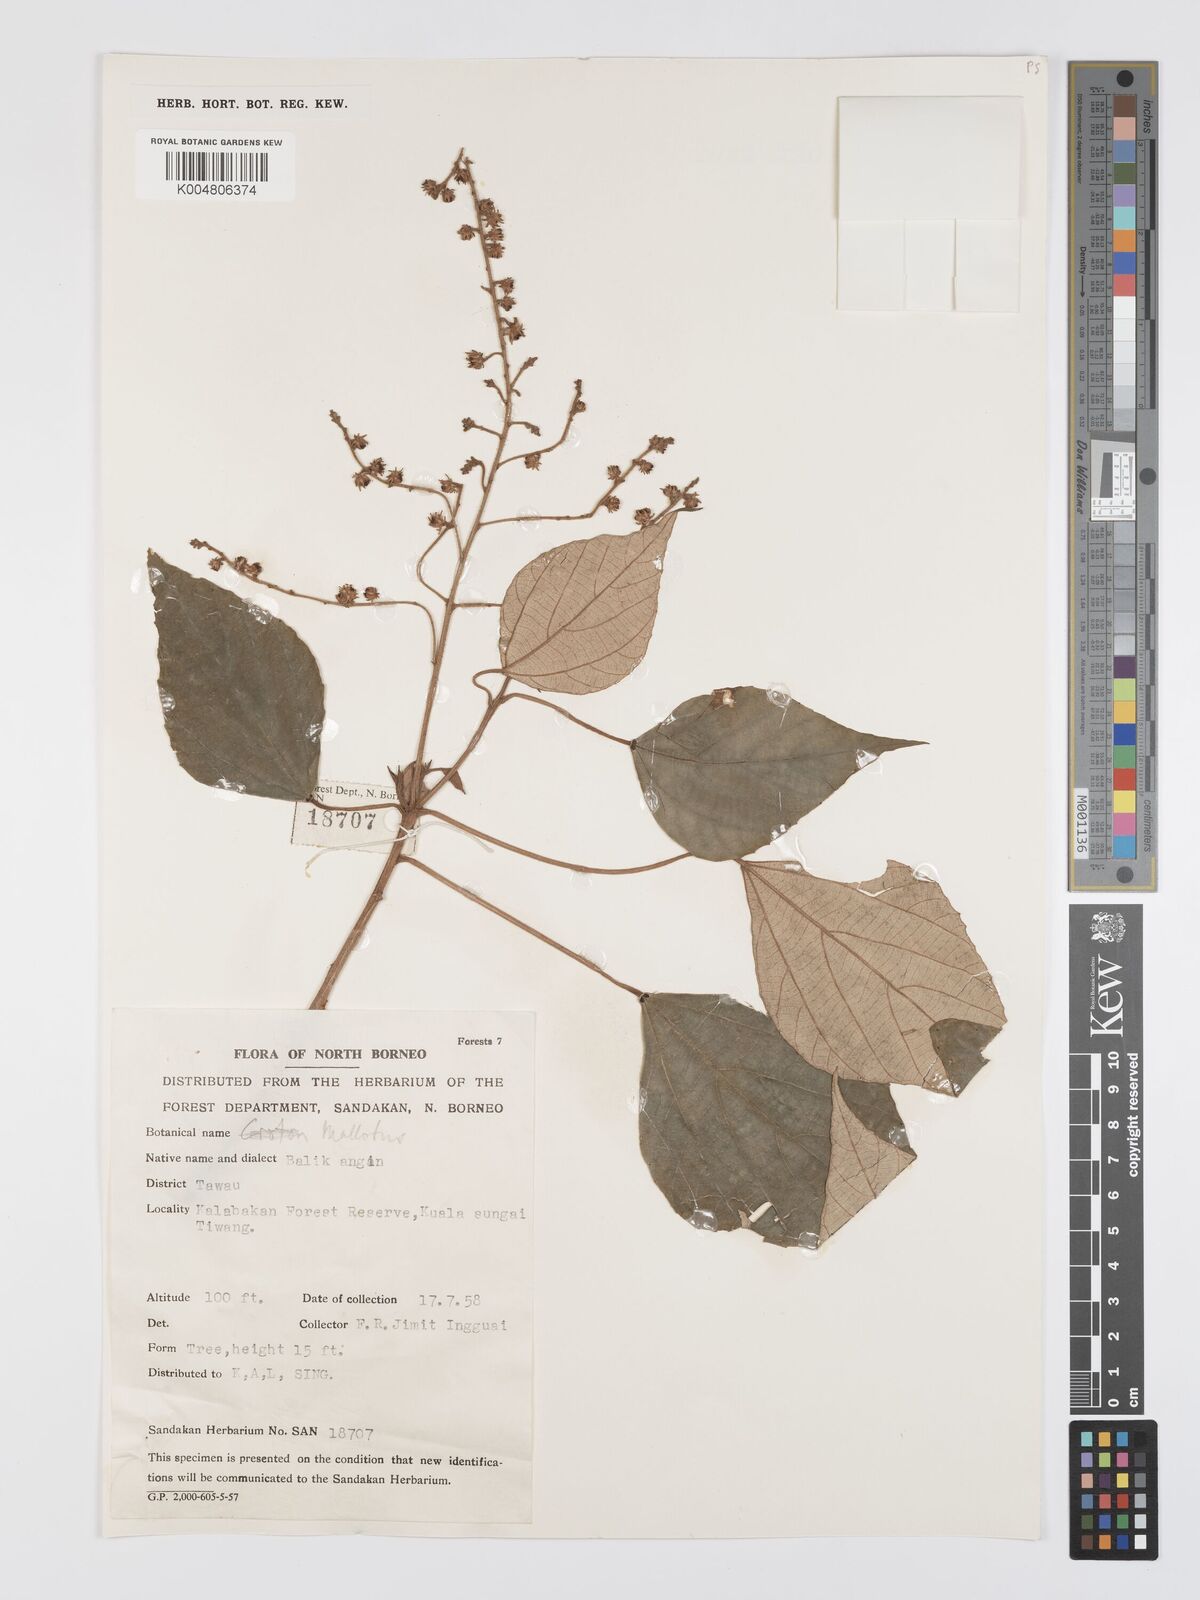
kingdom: Plantae
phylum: Tracheophyta
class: Magnoliopsida
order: Malpighiales
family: Euphorbiaceae
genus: Mallotus
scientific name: Mallotus paniculatus
